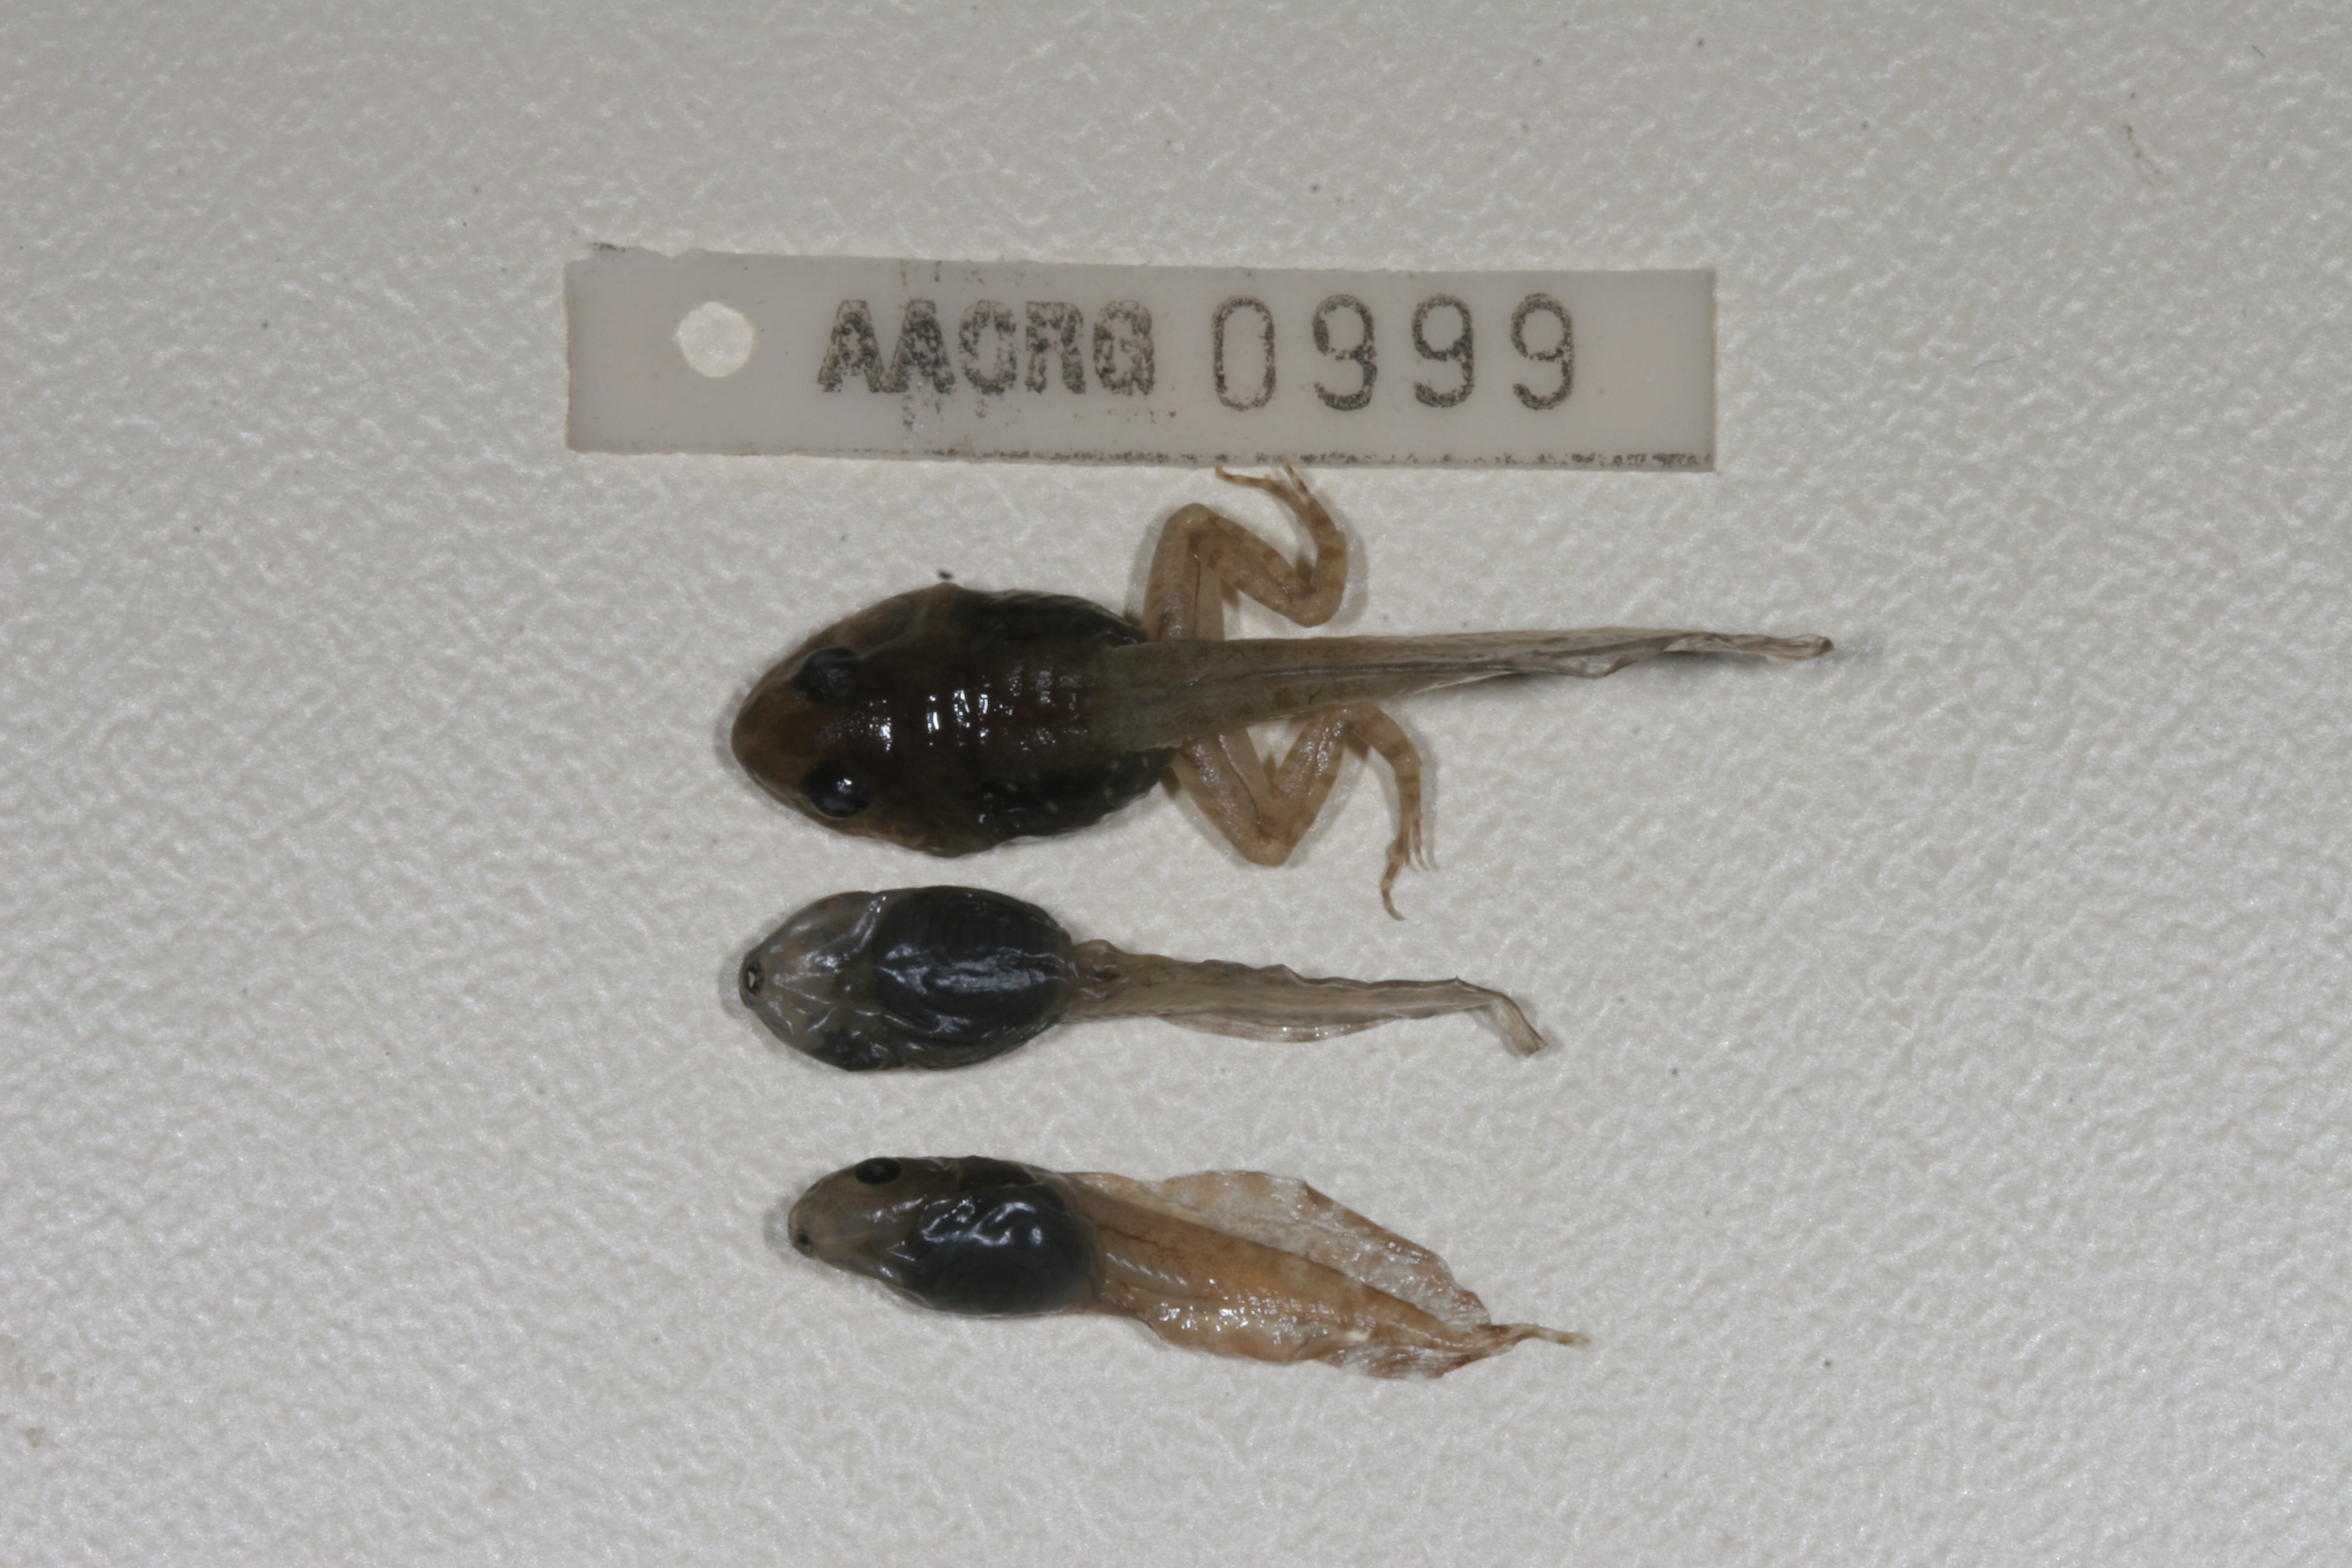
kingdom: Animalia
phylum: Chordata
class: Amphibia
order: Anura
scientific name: Anura
